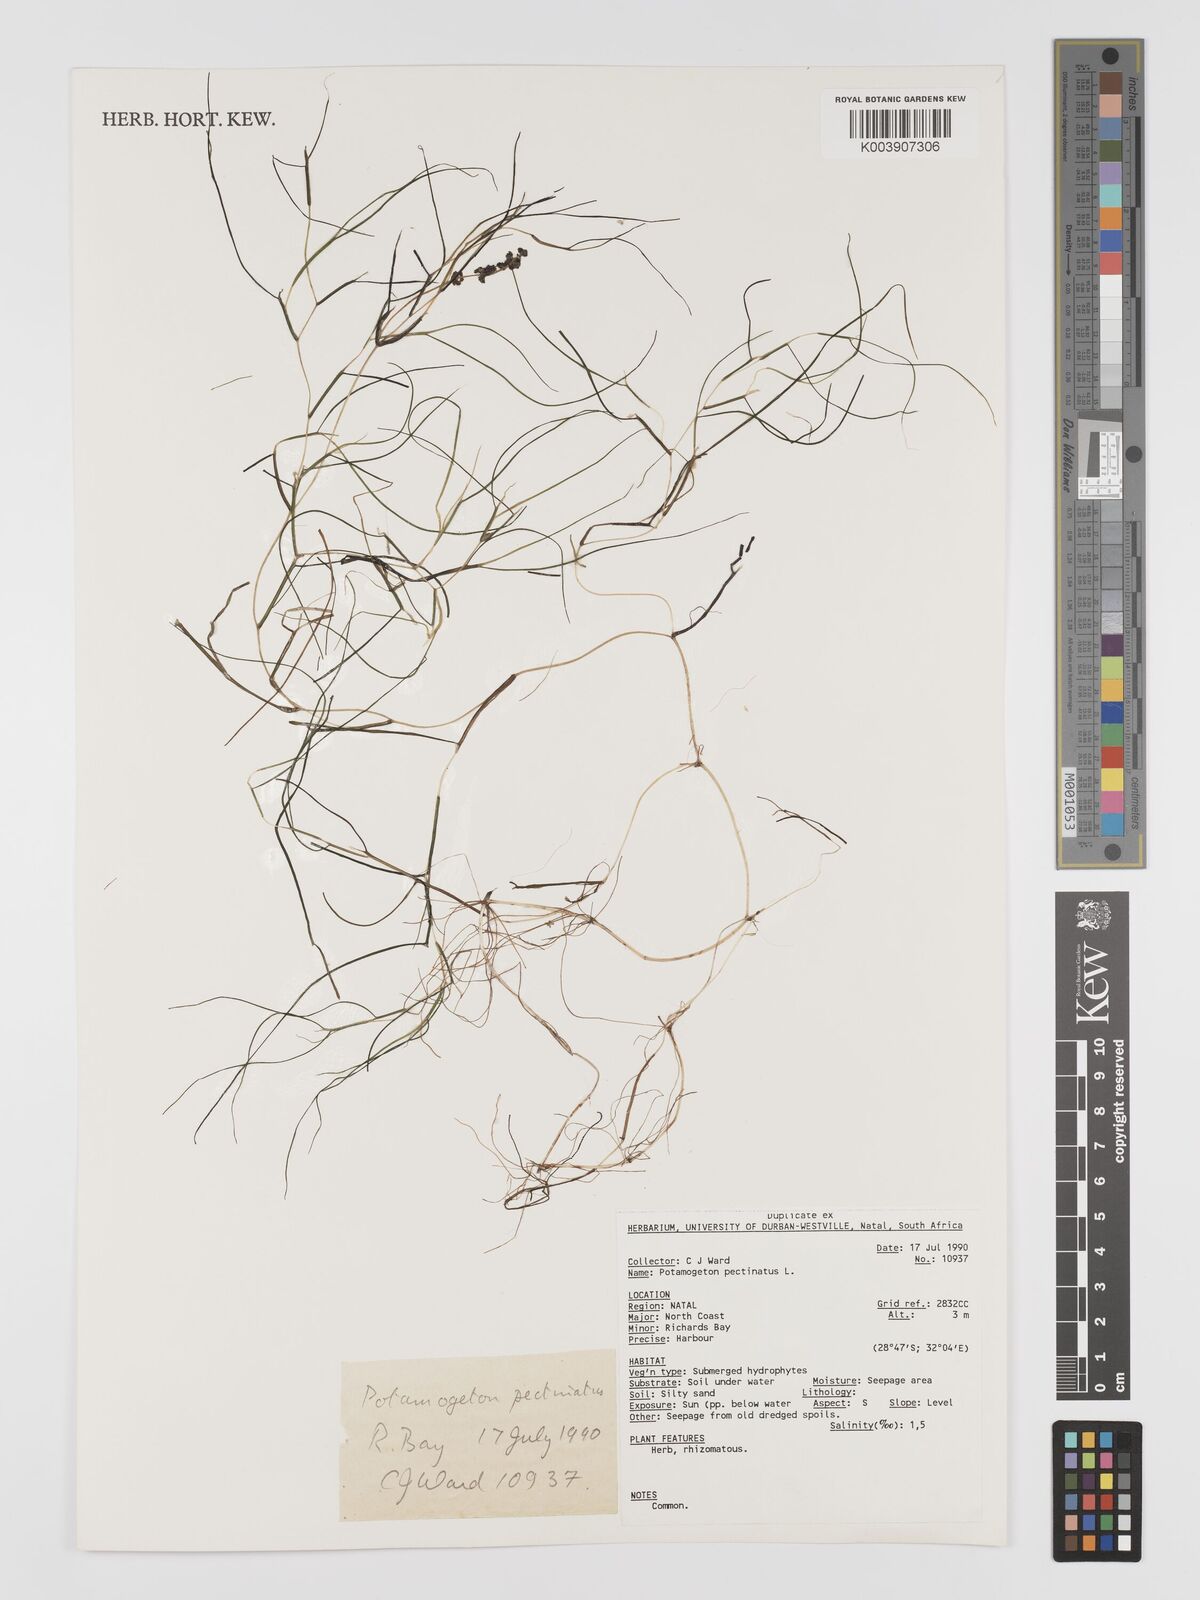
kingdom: Plantae
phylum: Tracheophyta
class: Liliopsida
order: Alismatales
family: Potamogetonaceae
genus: Stuckenia
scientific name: Stuckenia pectinata
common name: Sago pondweed
